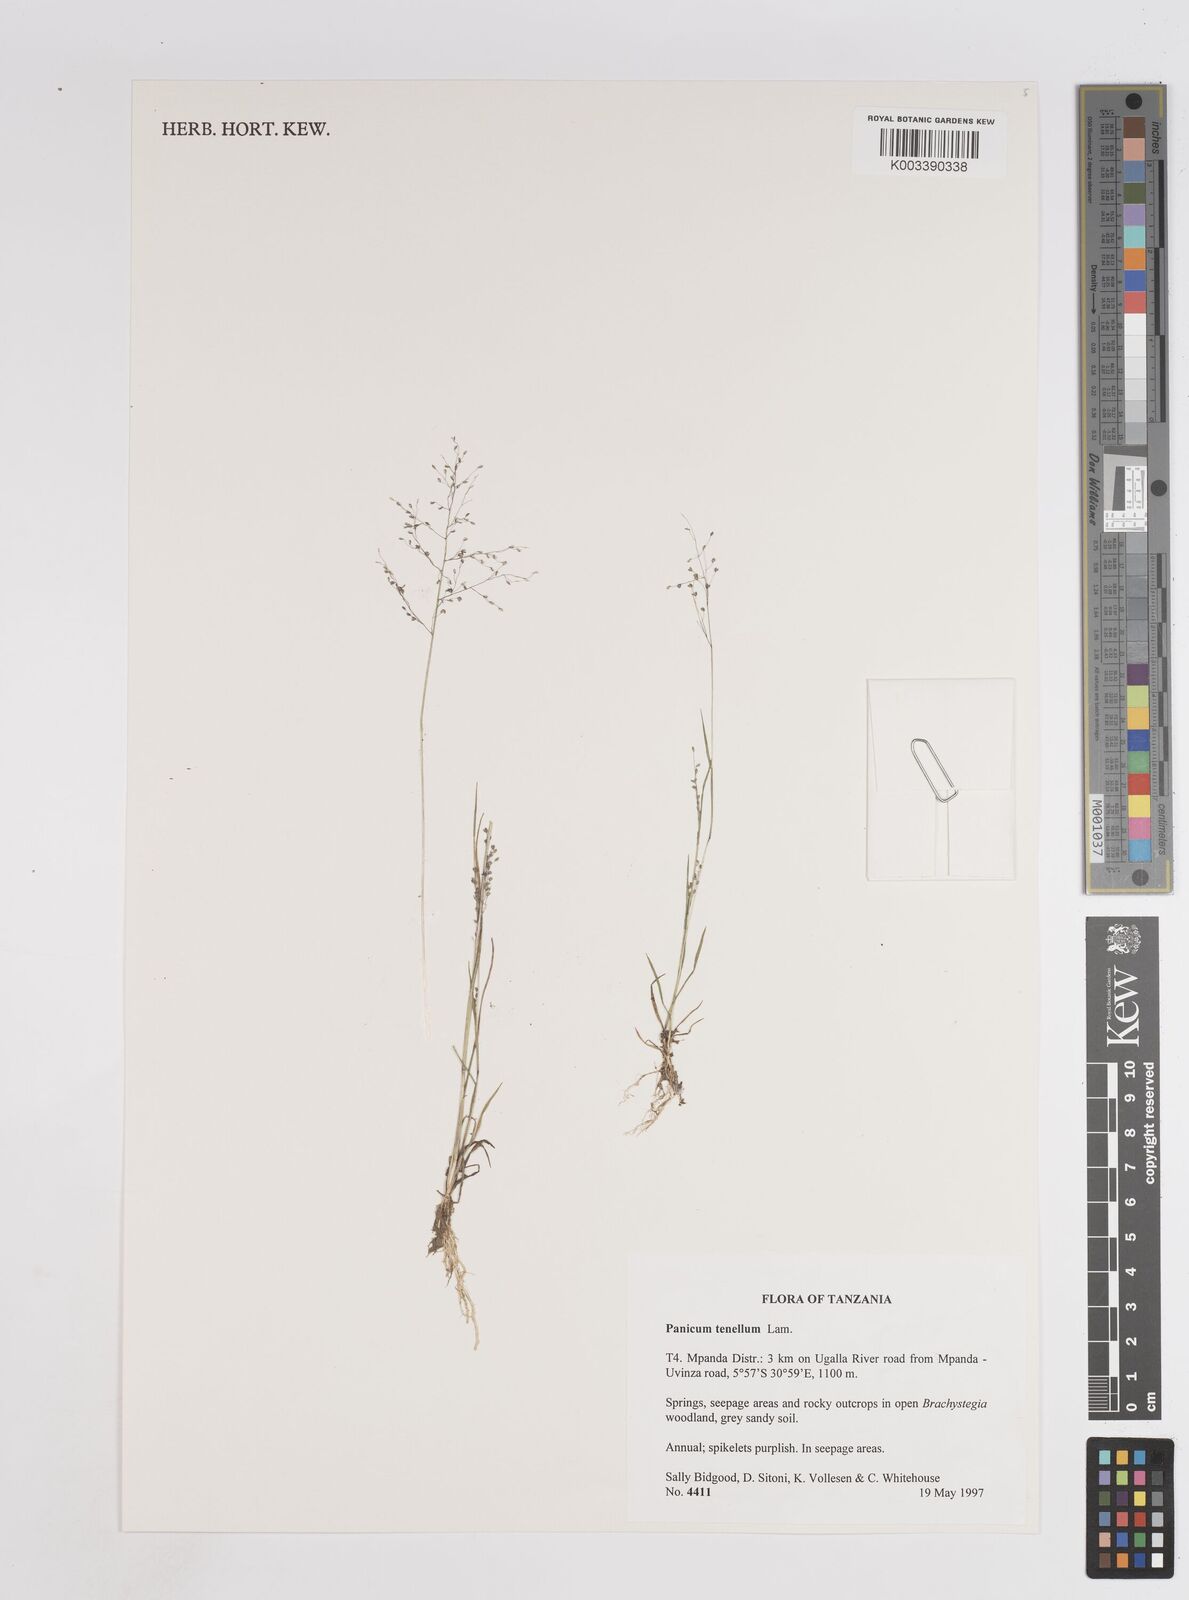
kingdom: Plantae
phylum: Tracheophyta
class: Liliopsida
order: Poales
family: Poaceae
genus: Trichanthecium
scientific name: Trichanthecium tenellum
